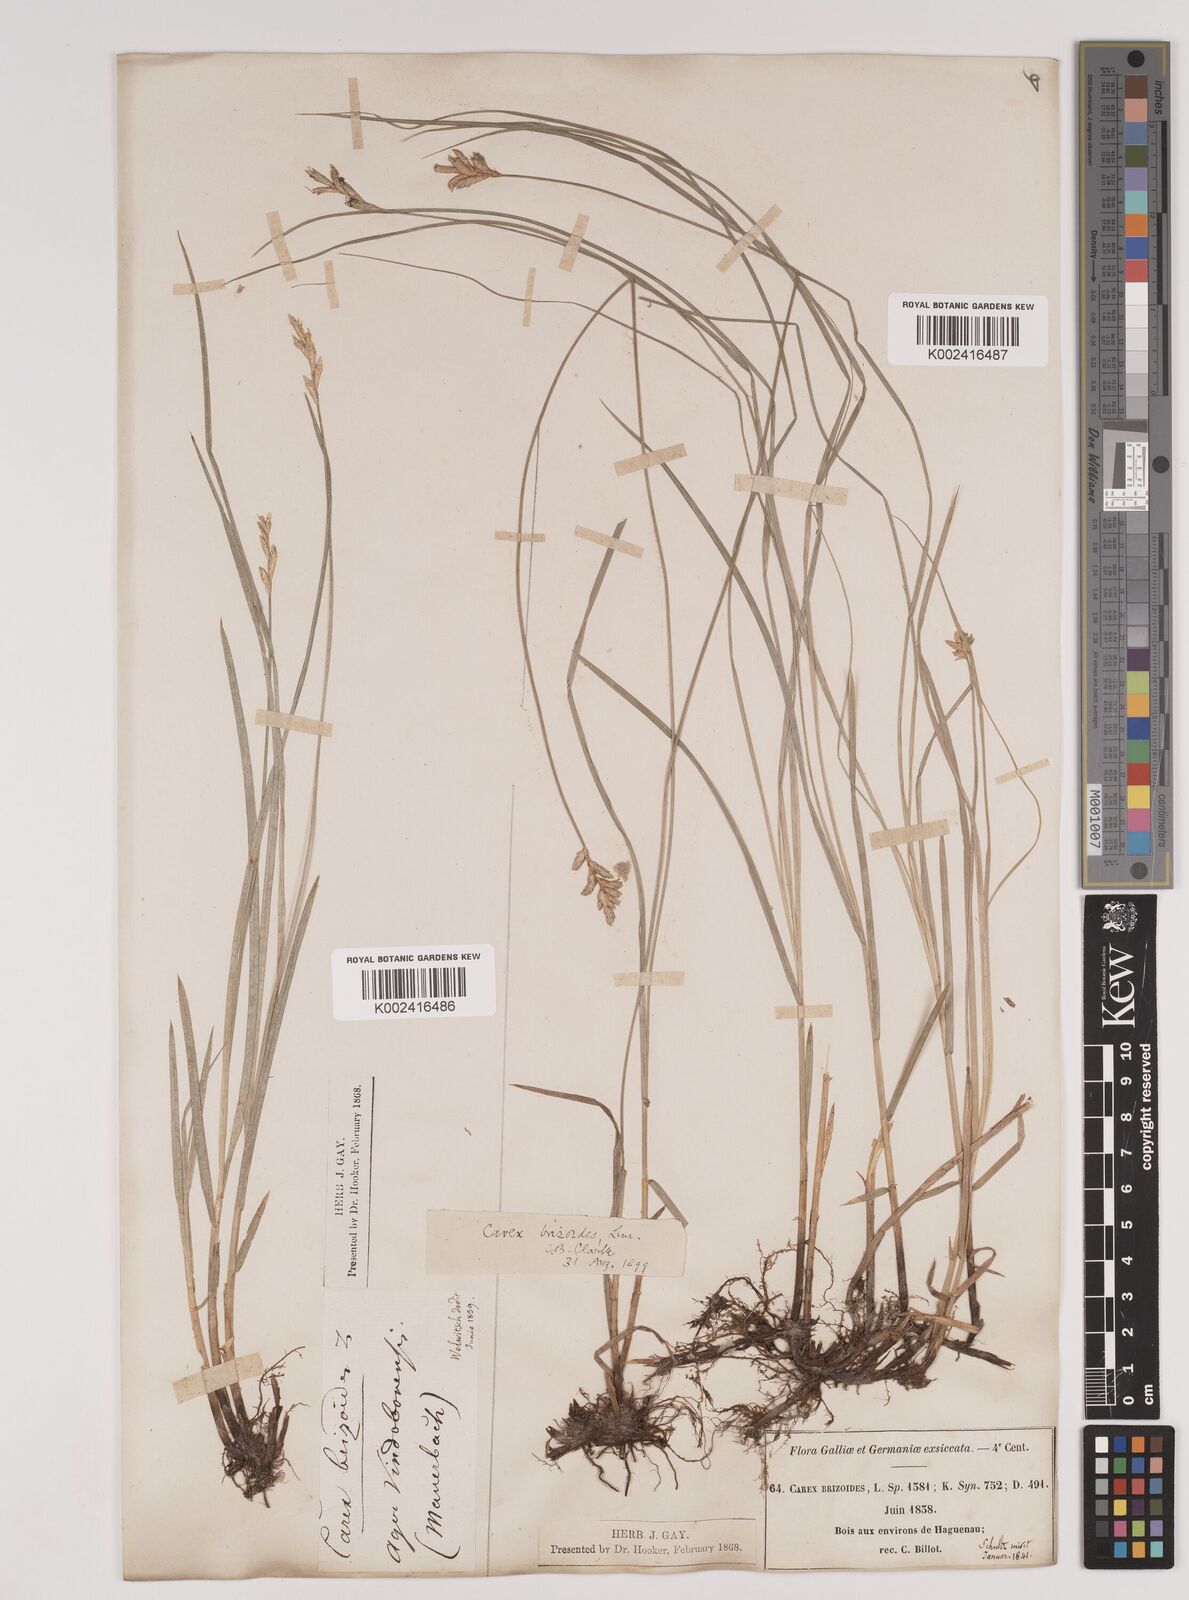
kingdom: Plantae
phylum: Tracheophyta
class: Liliopsida
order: Poales
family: Cyperaceae
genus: Carex
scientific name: Carex brizoides
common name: Quaking-grass sedge
